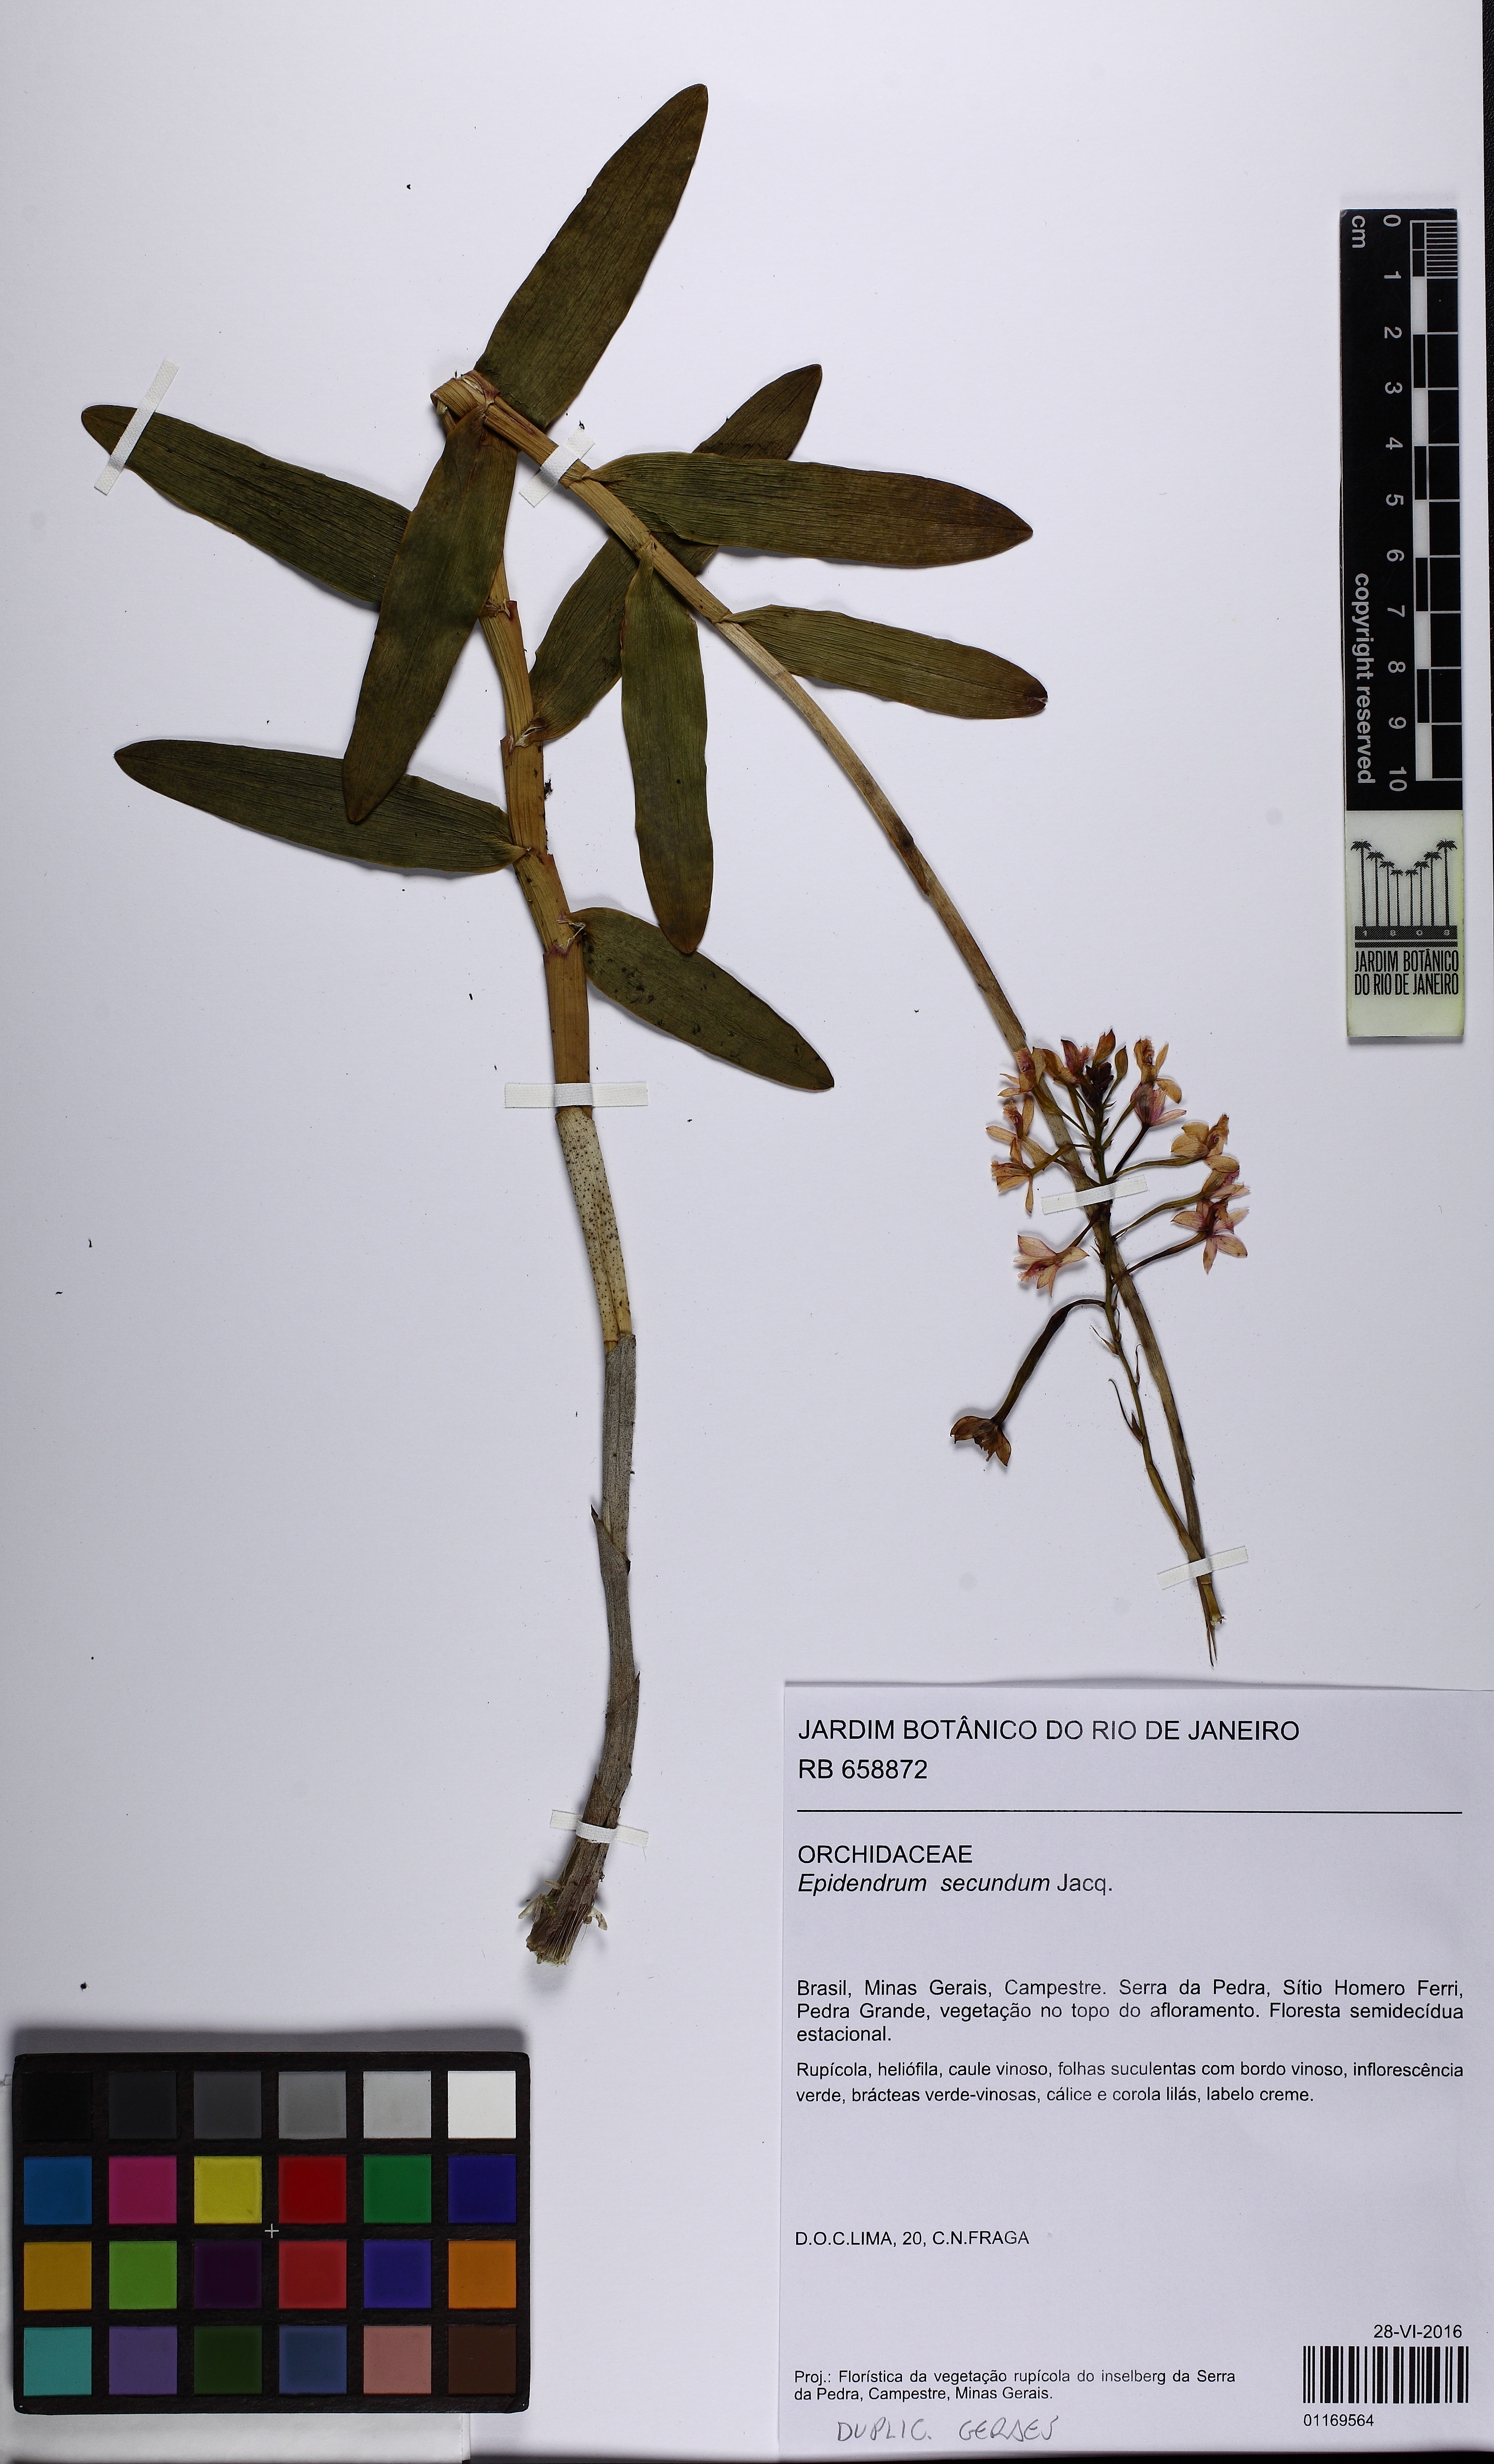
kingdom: Plantae
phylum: Tracheophyta
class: Liliopsida
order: Asparagales
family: Orchidaceae
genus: Epidendrum
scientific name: Epidendrum secundum
